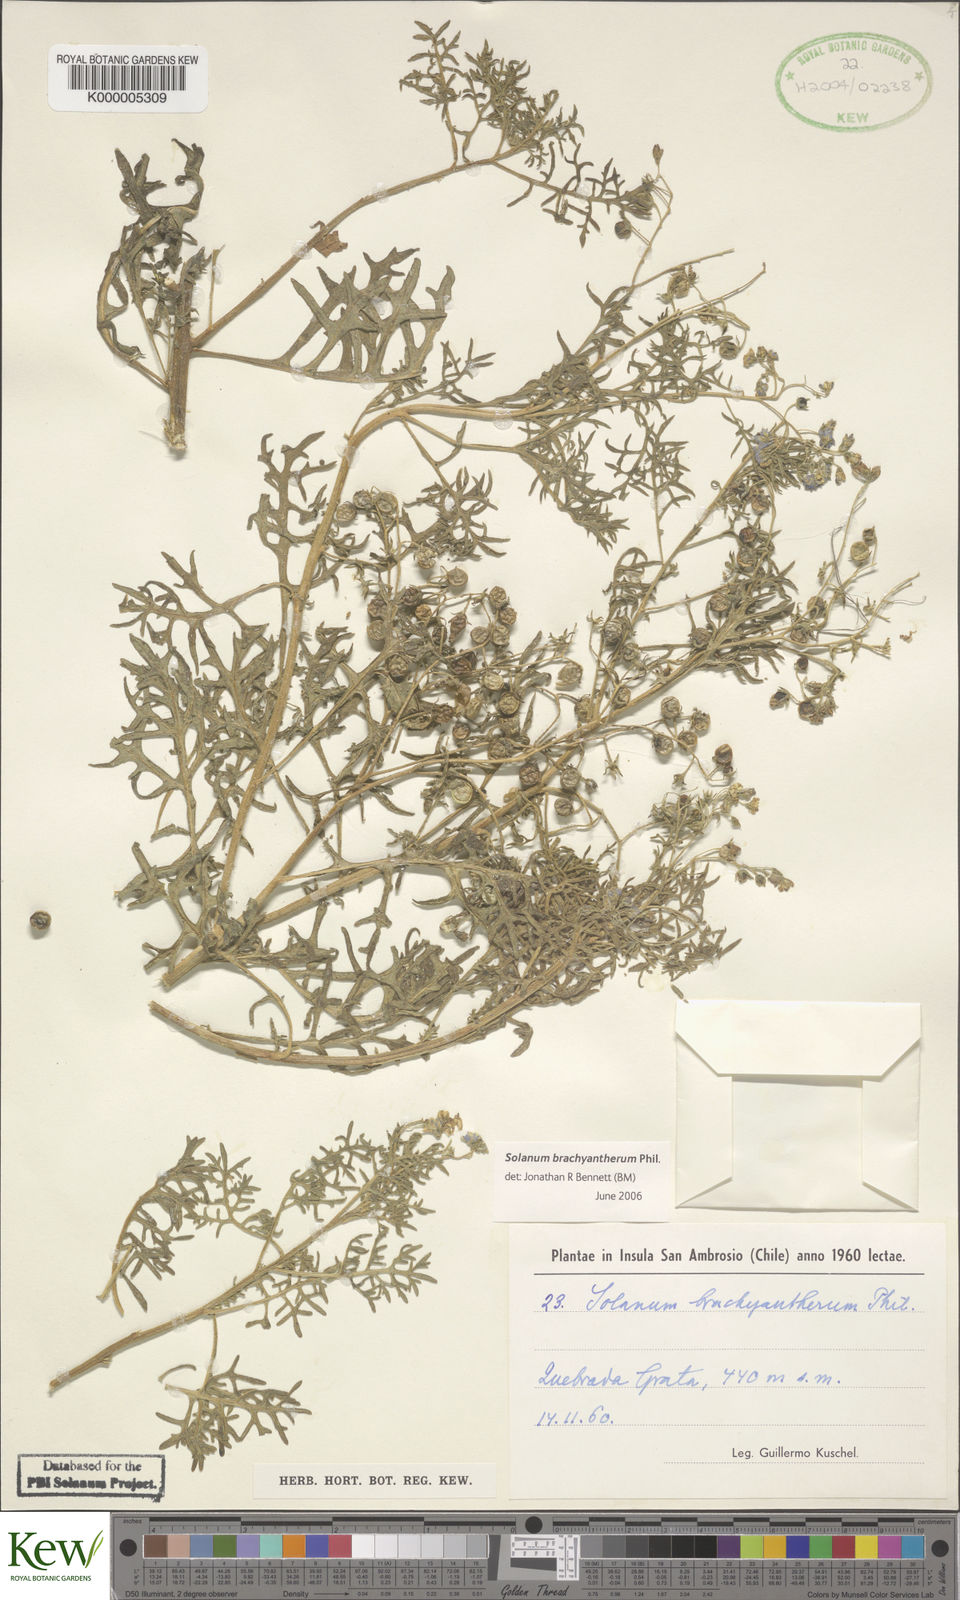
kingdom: Plantae
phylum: Tracheophyta
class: Magnoliopsida
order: Solanales
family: Solanaceae
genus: Solanum
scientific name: Solanum brachyantherum
